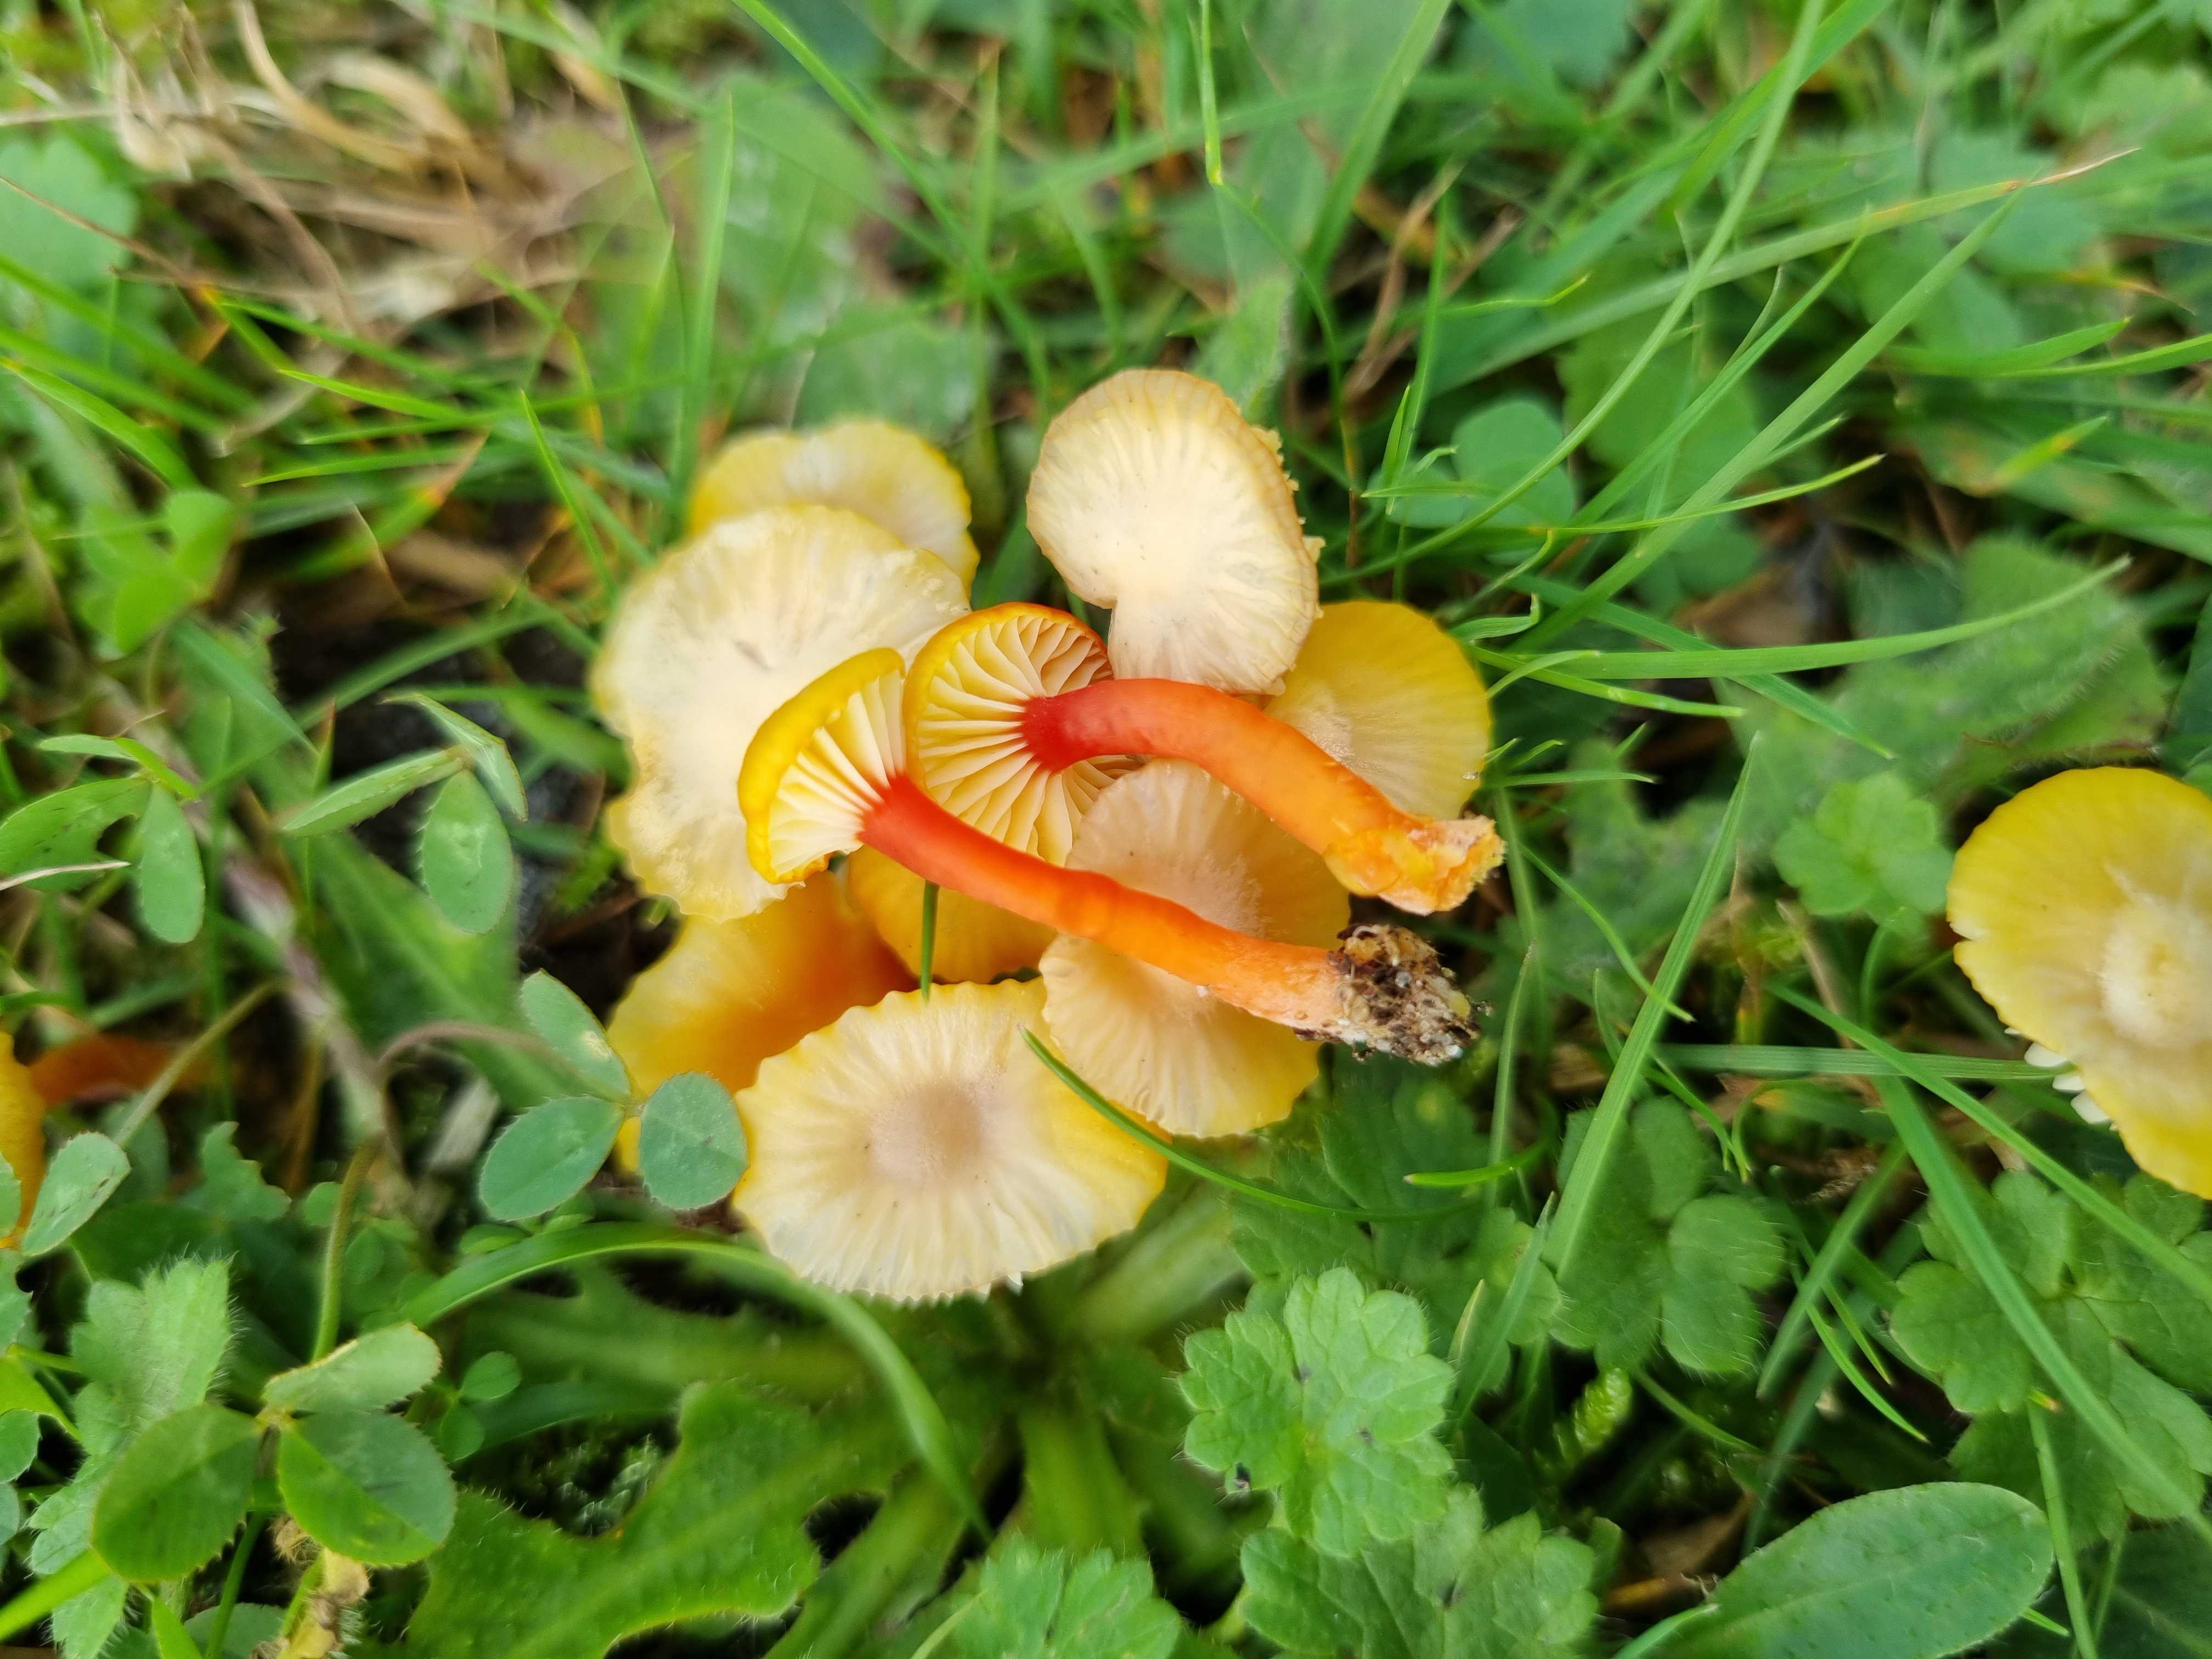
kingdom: Fungi
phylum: Basidiomycota
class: Agaricomycetes
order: Agaricales
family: Hygrophoraceae
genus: Hygrocybe
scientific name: Hygrocybe insipida
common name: liden vokshat
